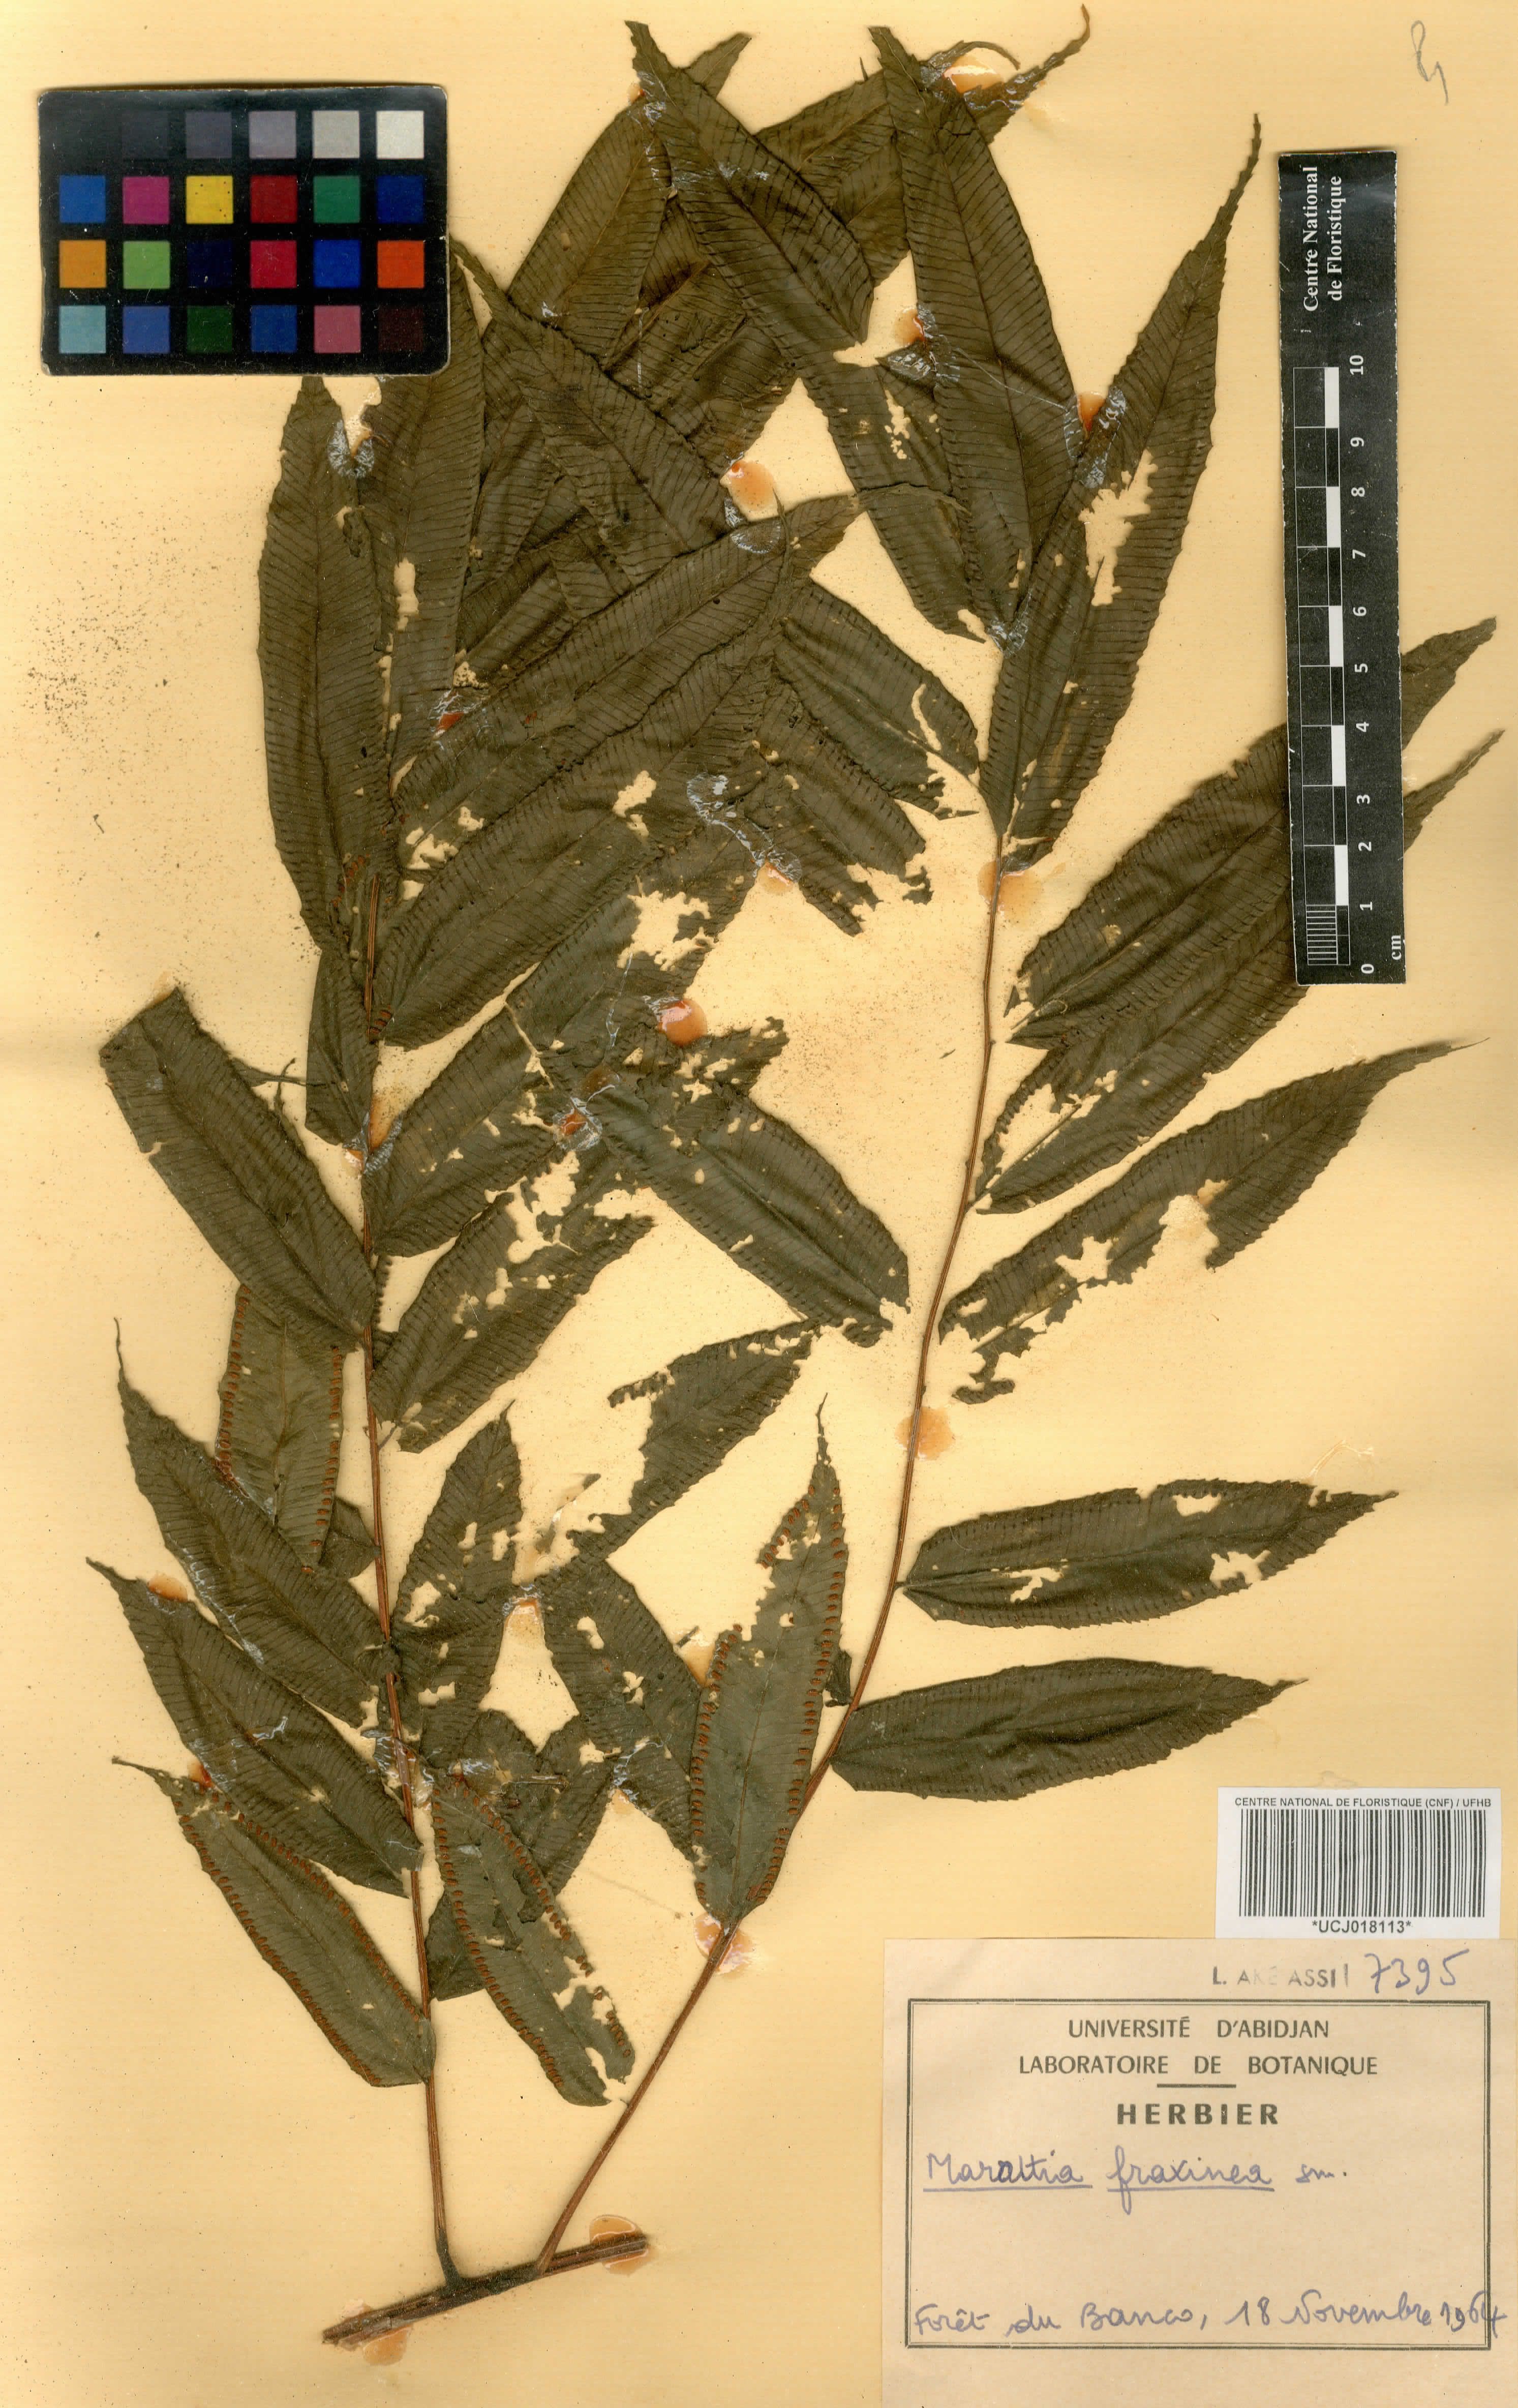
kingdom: Plantae
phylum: Tracheophyta
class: Polypodiopsida
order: Marattiales
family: Marattiaceae
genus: Ptisana
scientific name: Ptisana fraxinea
